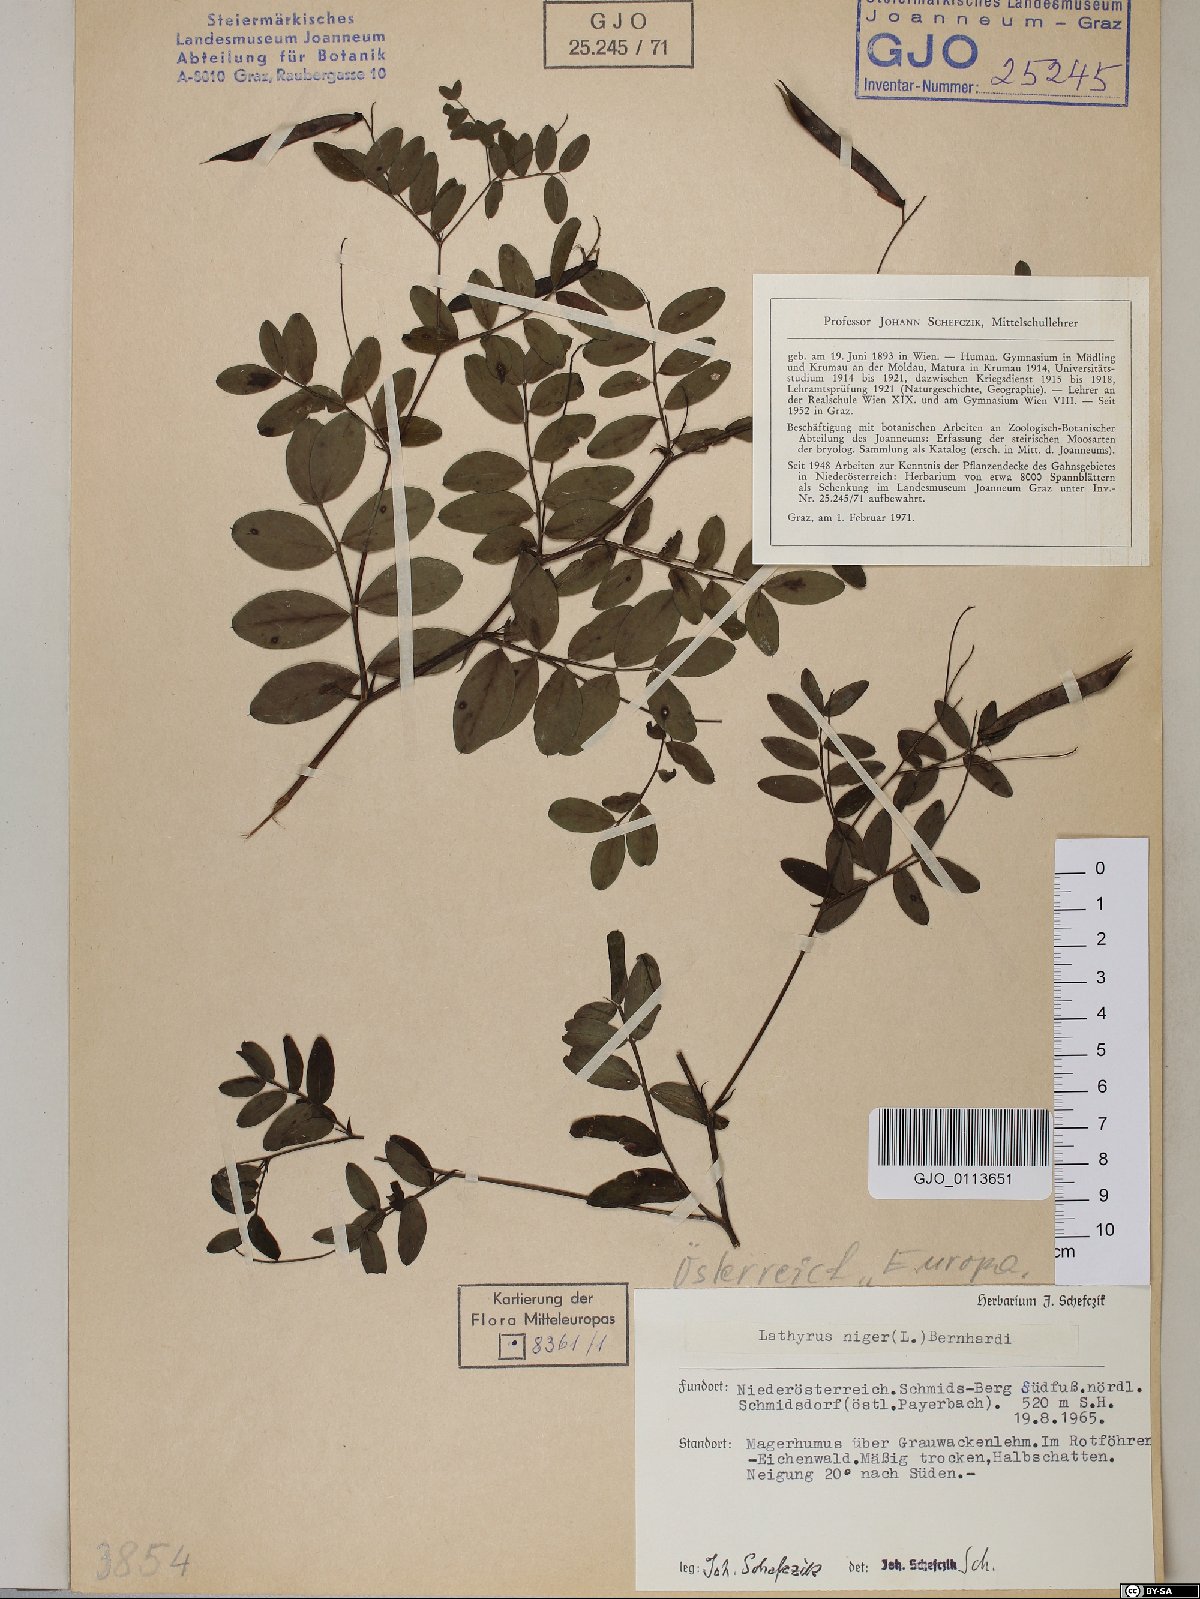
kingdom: Plantae
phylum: Tracheophyta
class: Magnoliopsida
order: Fabales
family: Fabaceae
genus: Lathyrus
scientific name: Lathyrus niger
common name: Black pea
